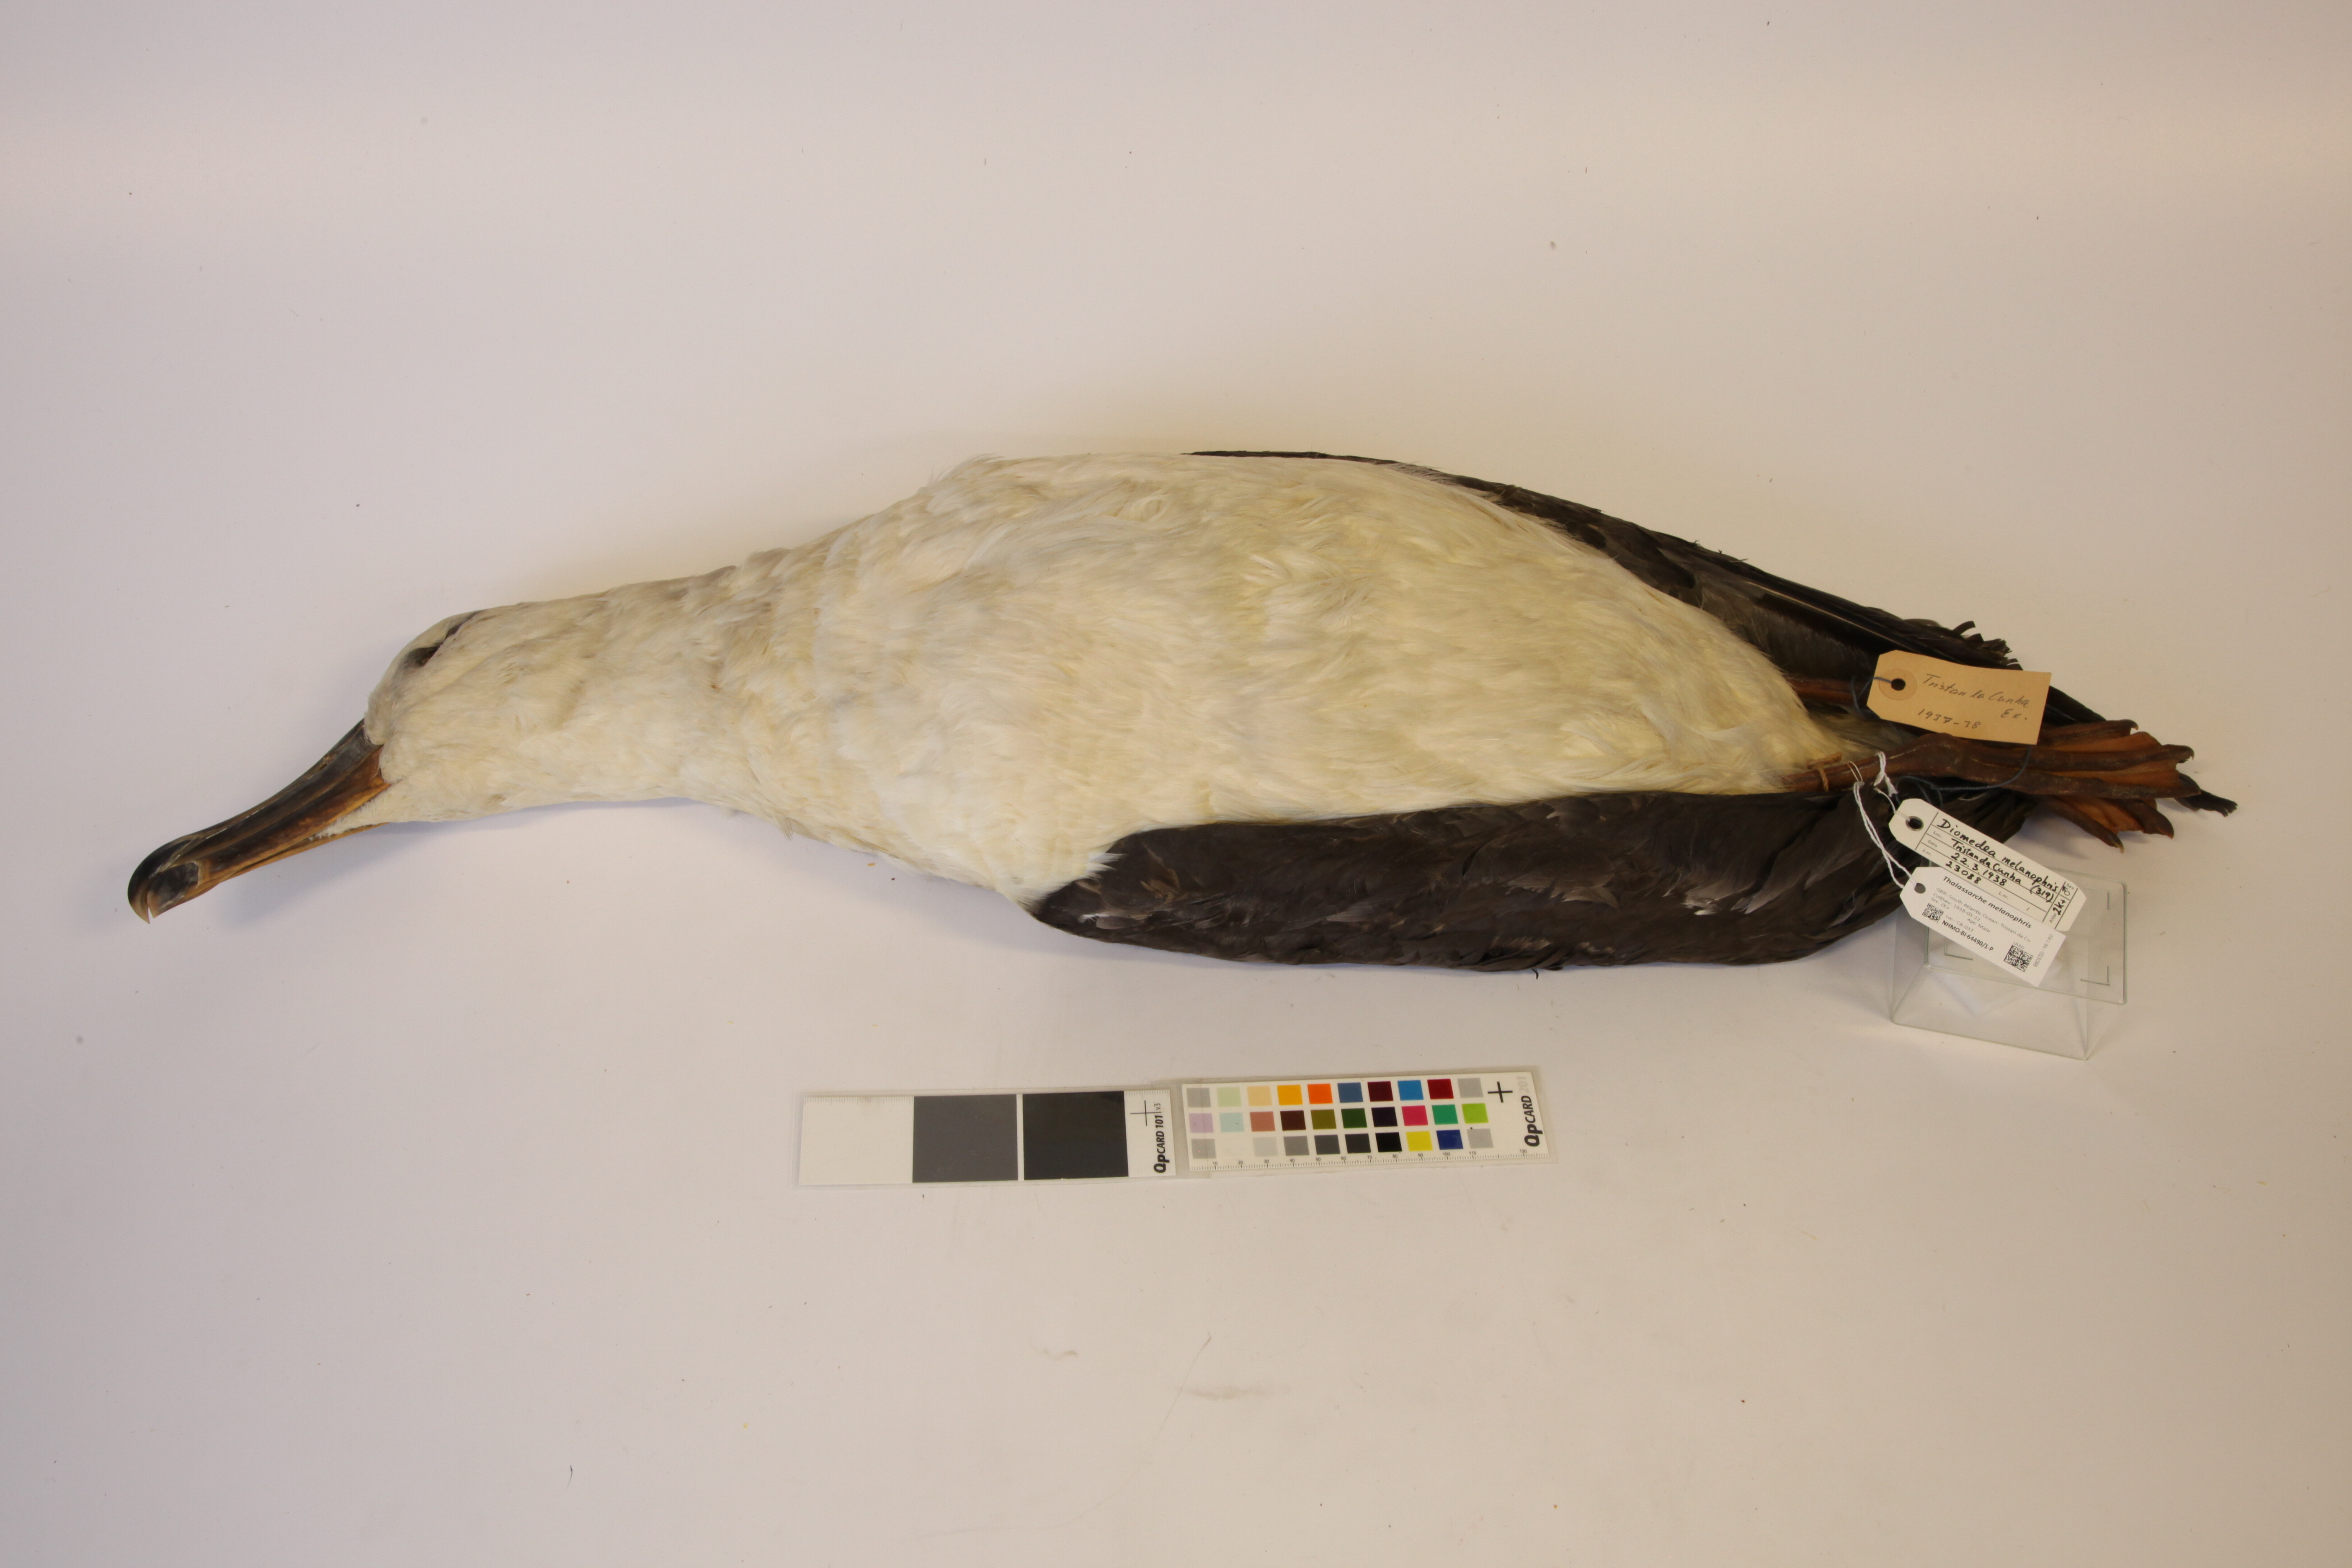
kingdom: Animalia
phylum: Chordata
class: Aves
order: Procellariiformes
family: Diomedeidae
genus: Thalassarche
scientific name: Thalassarche melanophris
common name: Black-browed albatross
